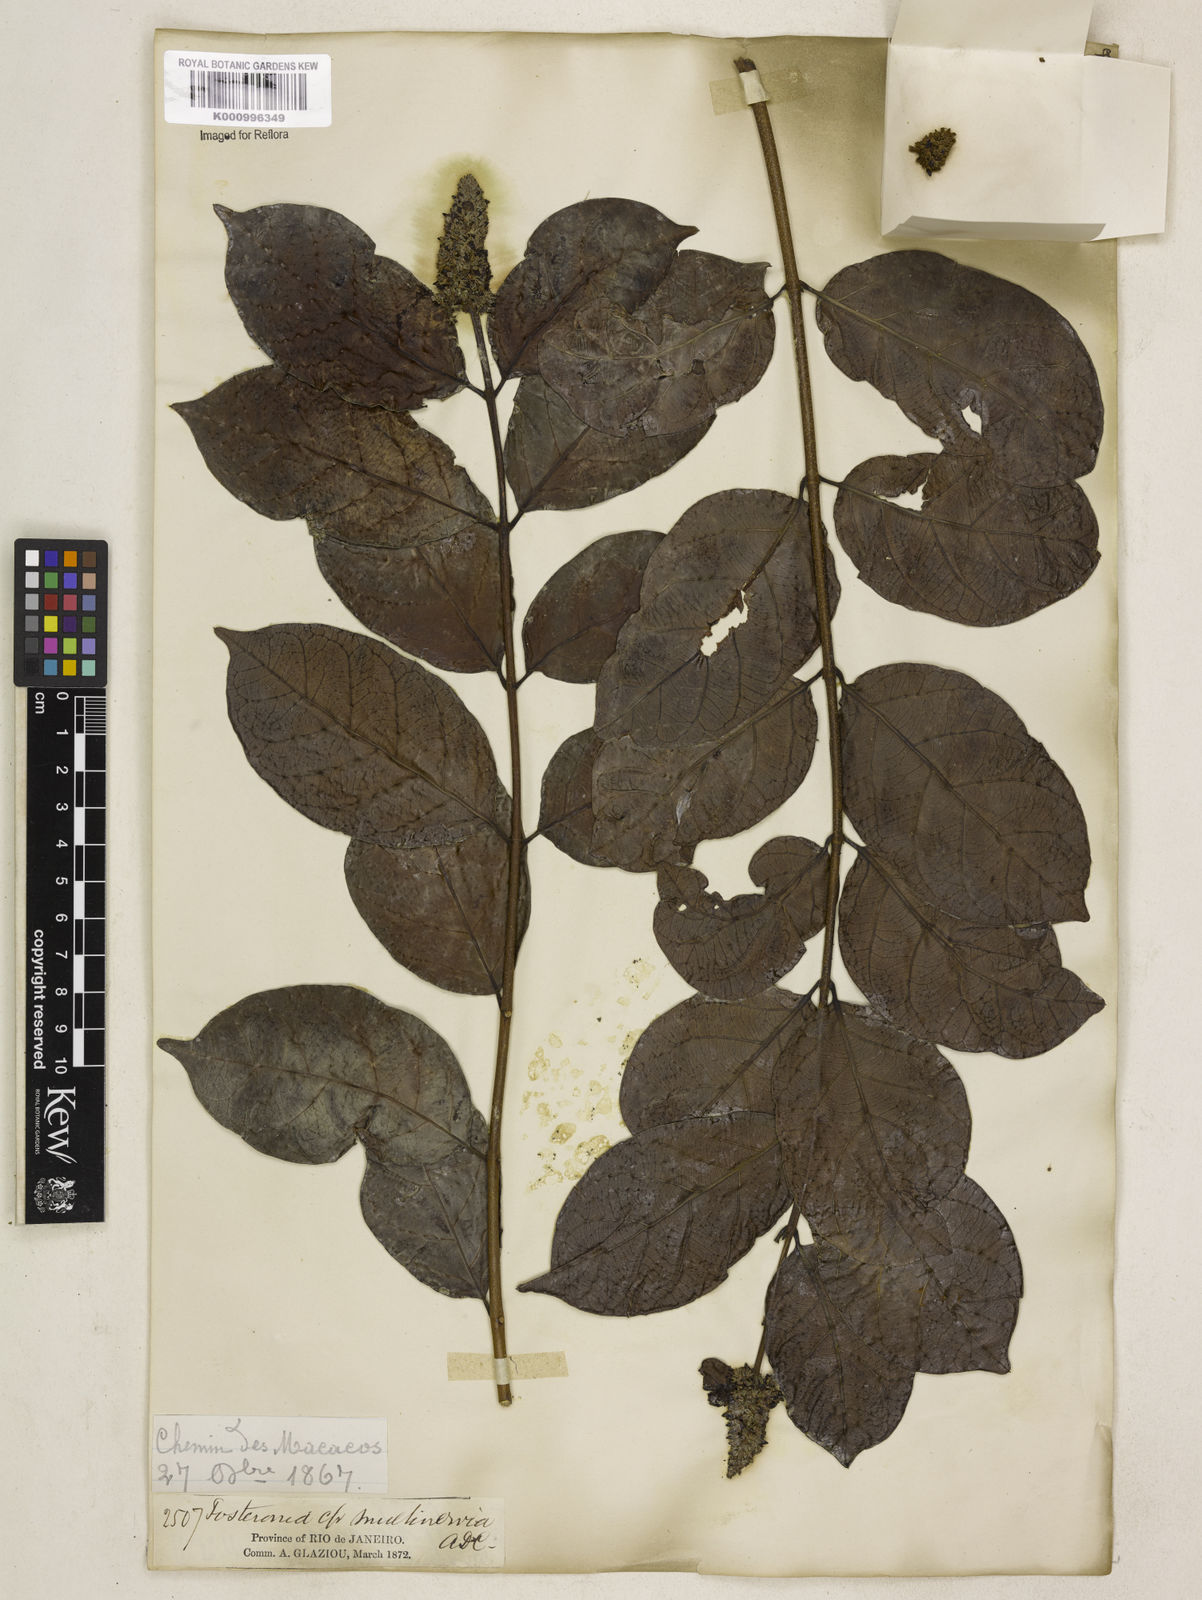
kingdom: Plantae
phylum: Tracheophyta
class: Magnoliopsida
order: Gentianales
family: Apocynaceae
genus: Forsteronia
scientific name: Forsteronia leptocarpa
